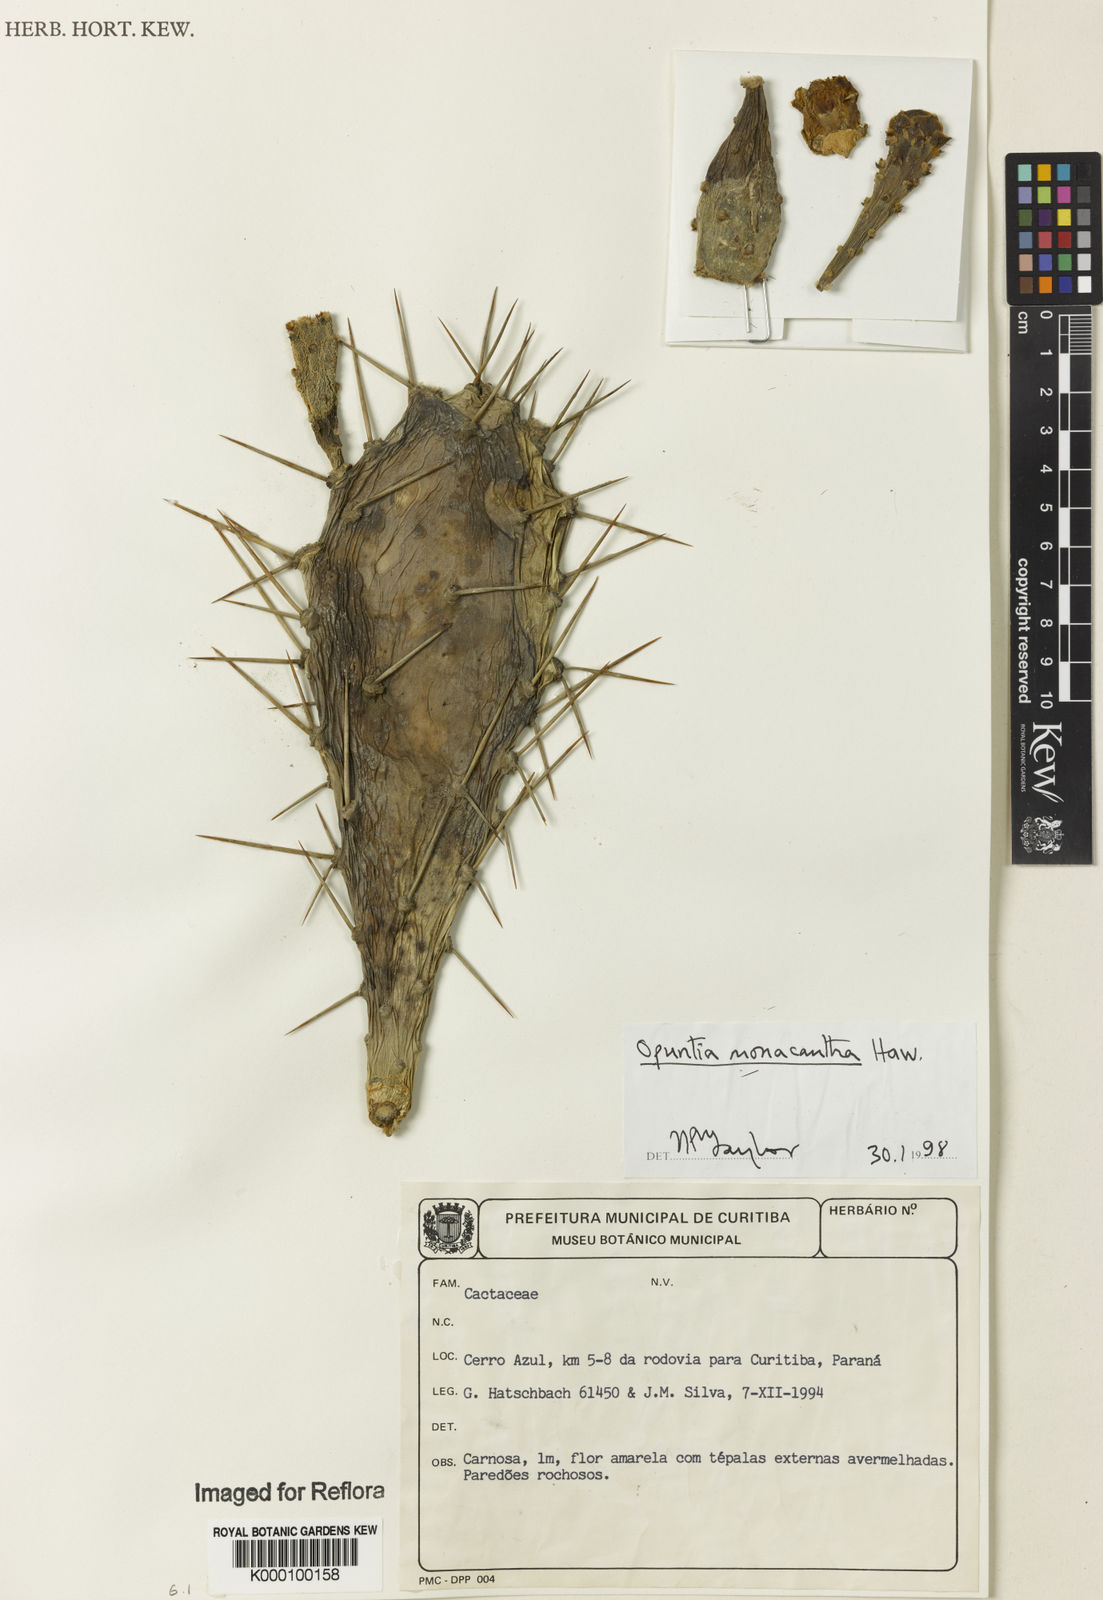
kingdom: Plantae
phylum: Tracheophyta
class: Magnoliopsida
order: Caryophyllales
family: Cactaceae
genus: Opuntia
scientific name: Opuntia monacantha
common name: Common pricklypear
